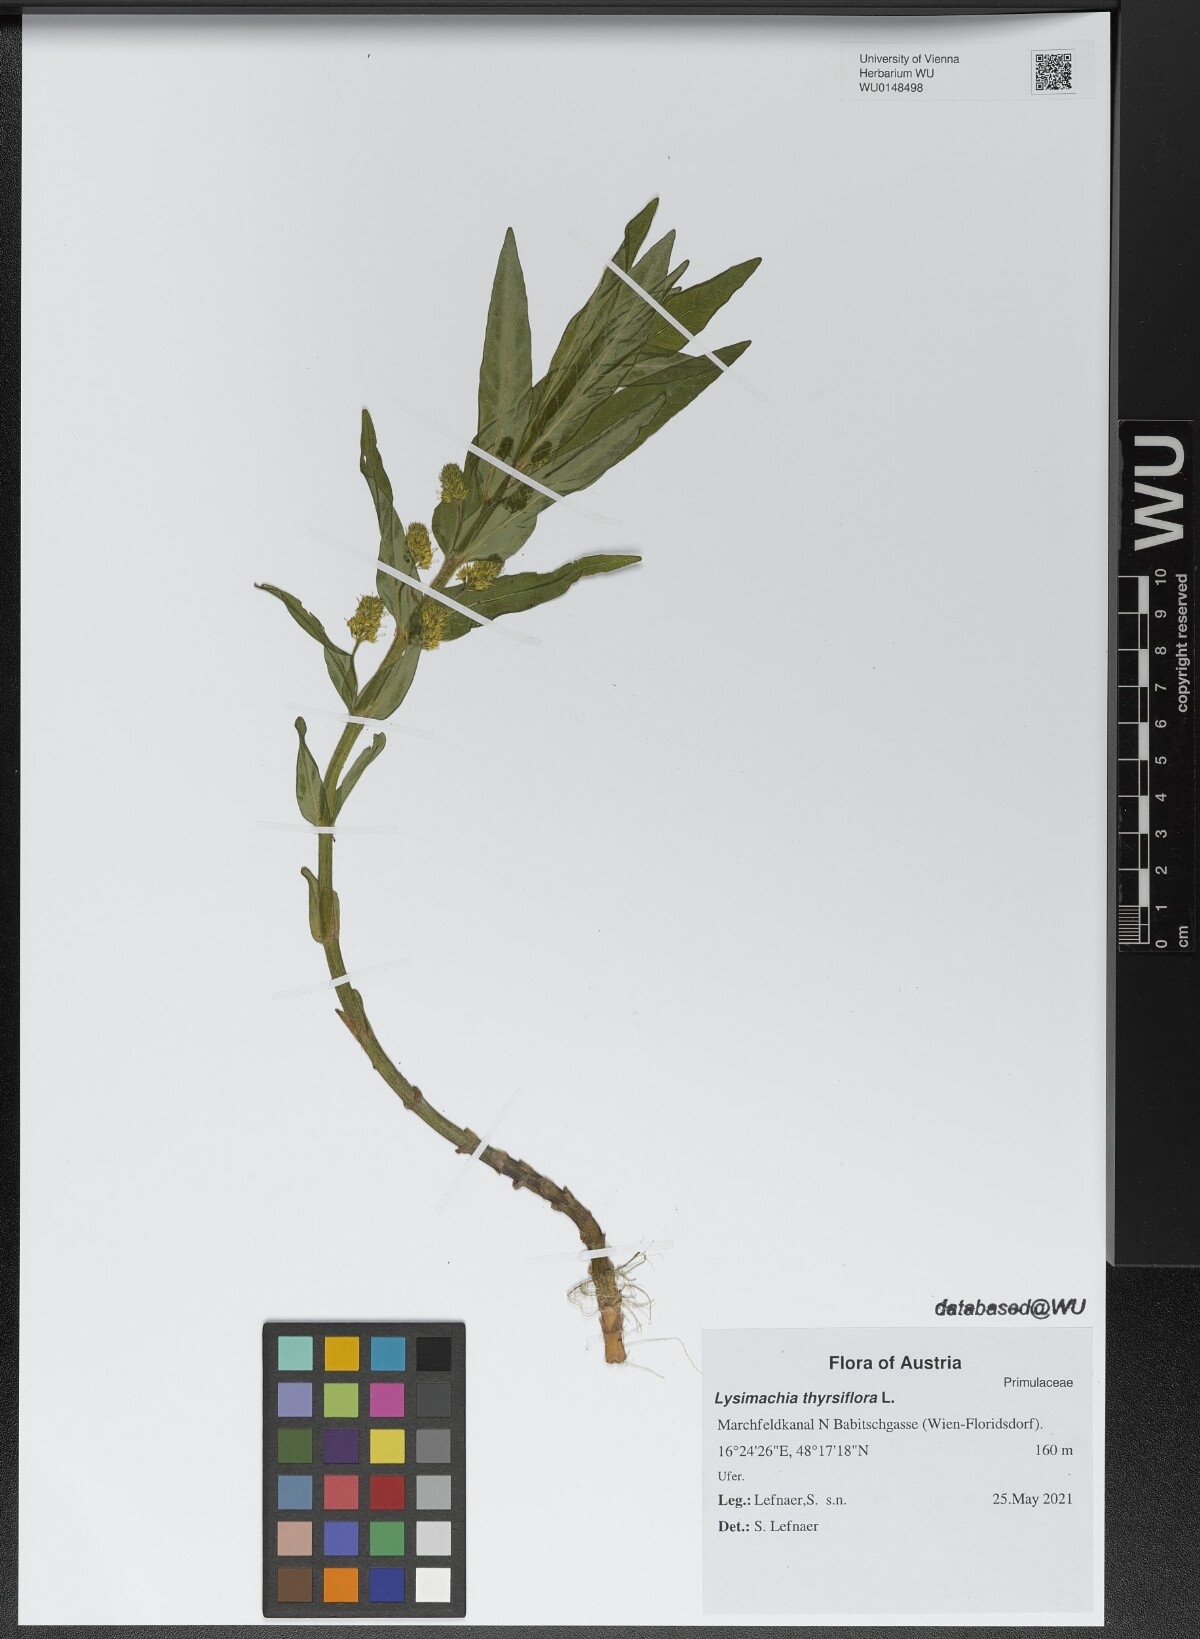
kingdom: Plantae
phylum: Tracheophyta
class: Magnoliopsida
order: Ericales
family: Primulaceae
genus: Lysimachia
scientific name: Lysimachia thyrsiflora
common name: Tufted loosestrife
